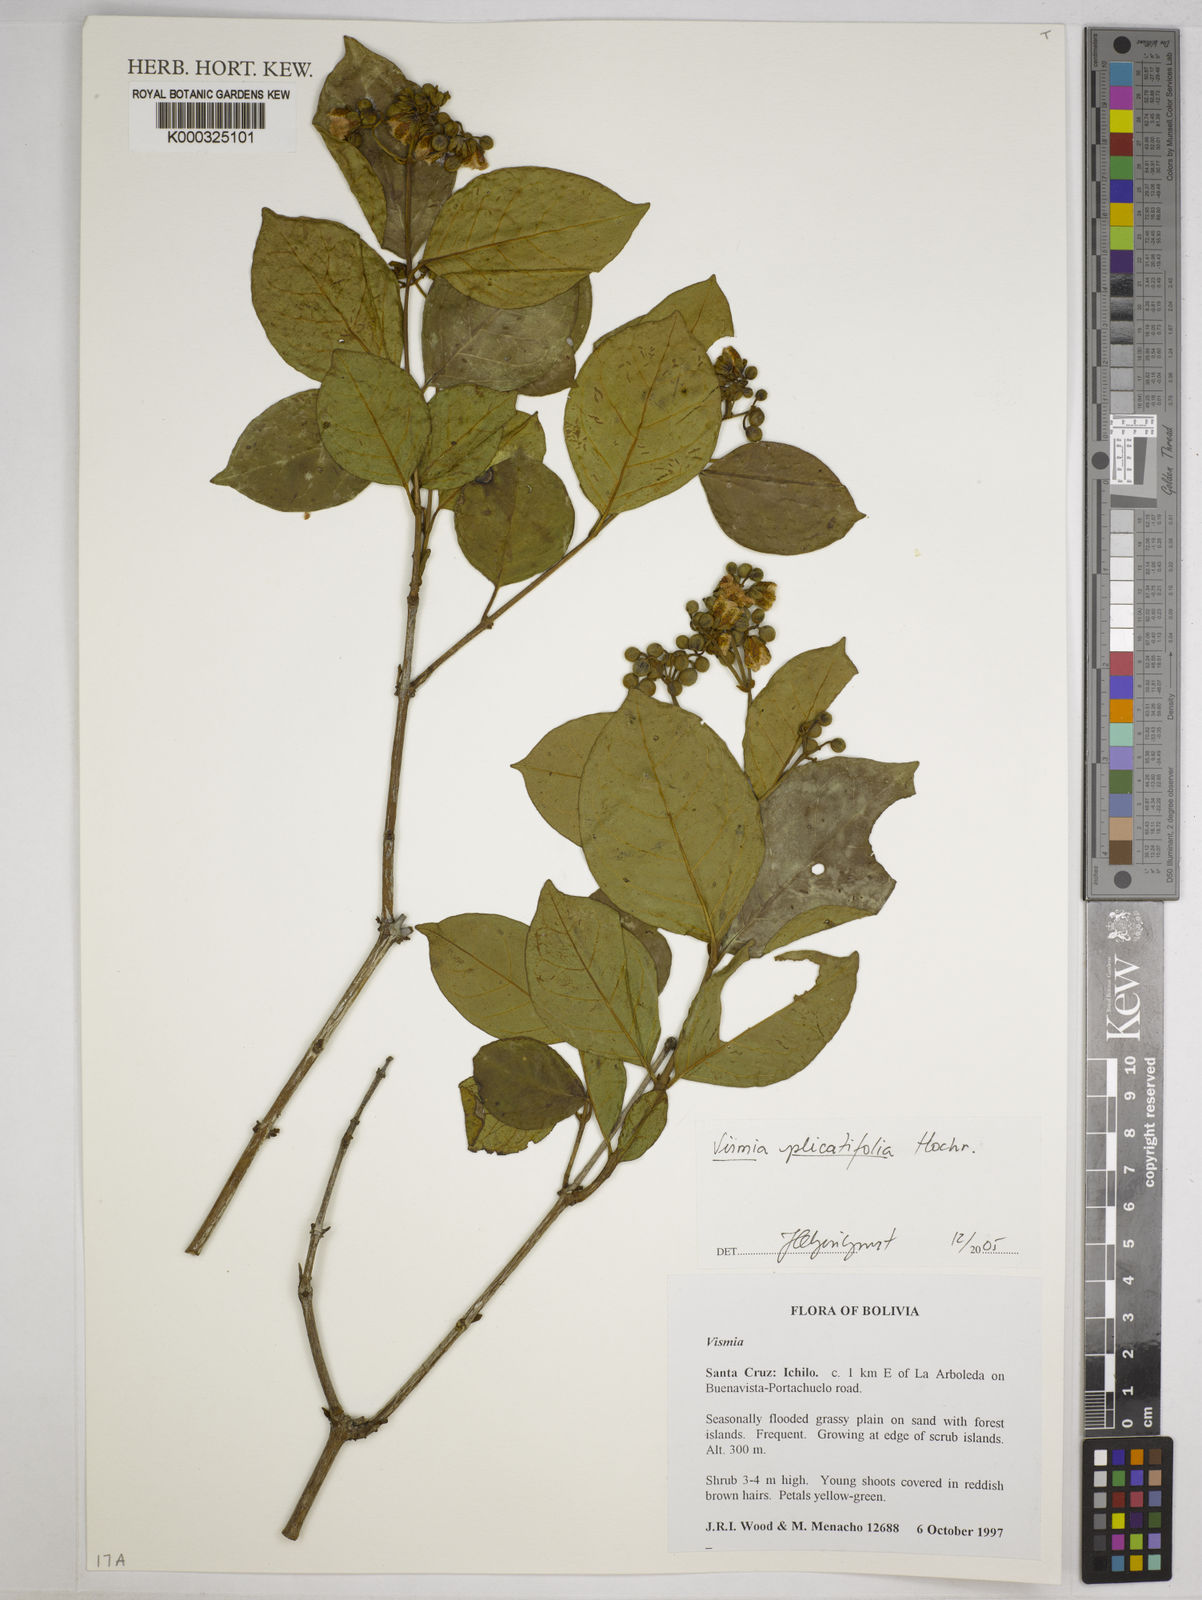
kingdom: Plantae
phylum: Tracheophyta
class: Magnoliopsida
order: Malpighiales
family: Hypericaceae
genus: Vismia
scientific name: Vismia plicatifolia
